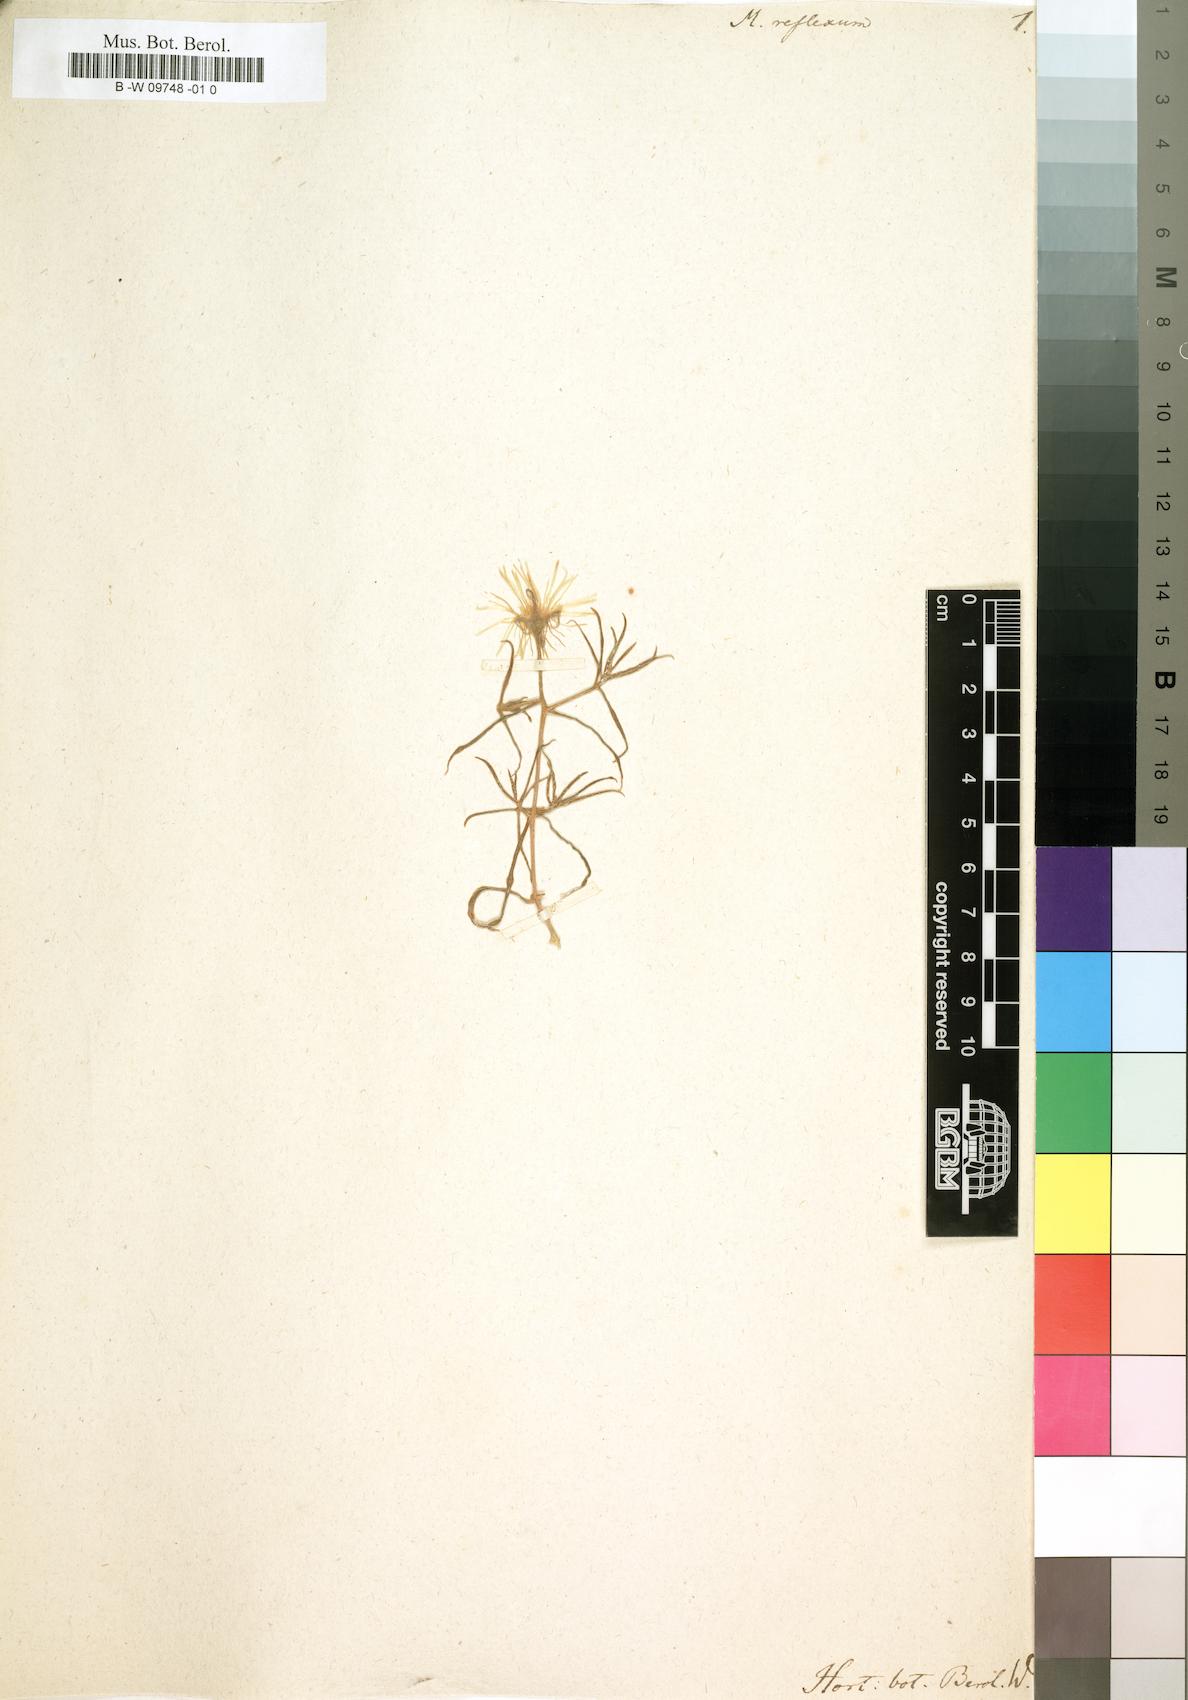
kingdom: Plantae
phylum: Tracheophyta
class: Magnoliopsida
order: Caryophyllales
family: Aizoaceae
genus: Mesembryanthemum
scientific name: Mesembryanthemum splendens
